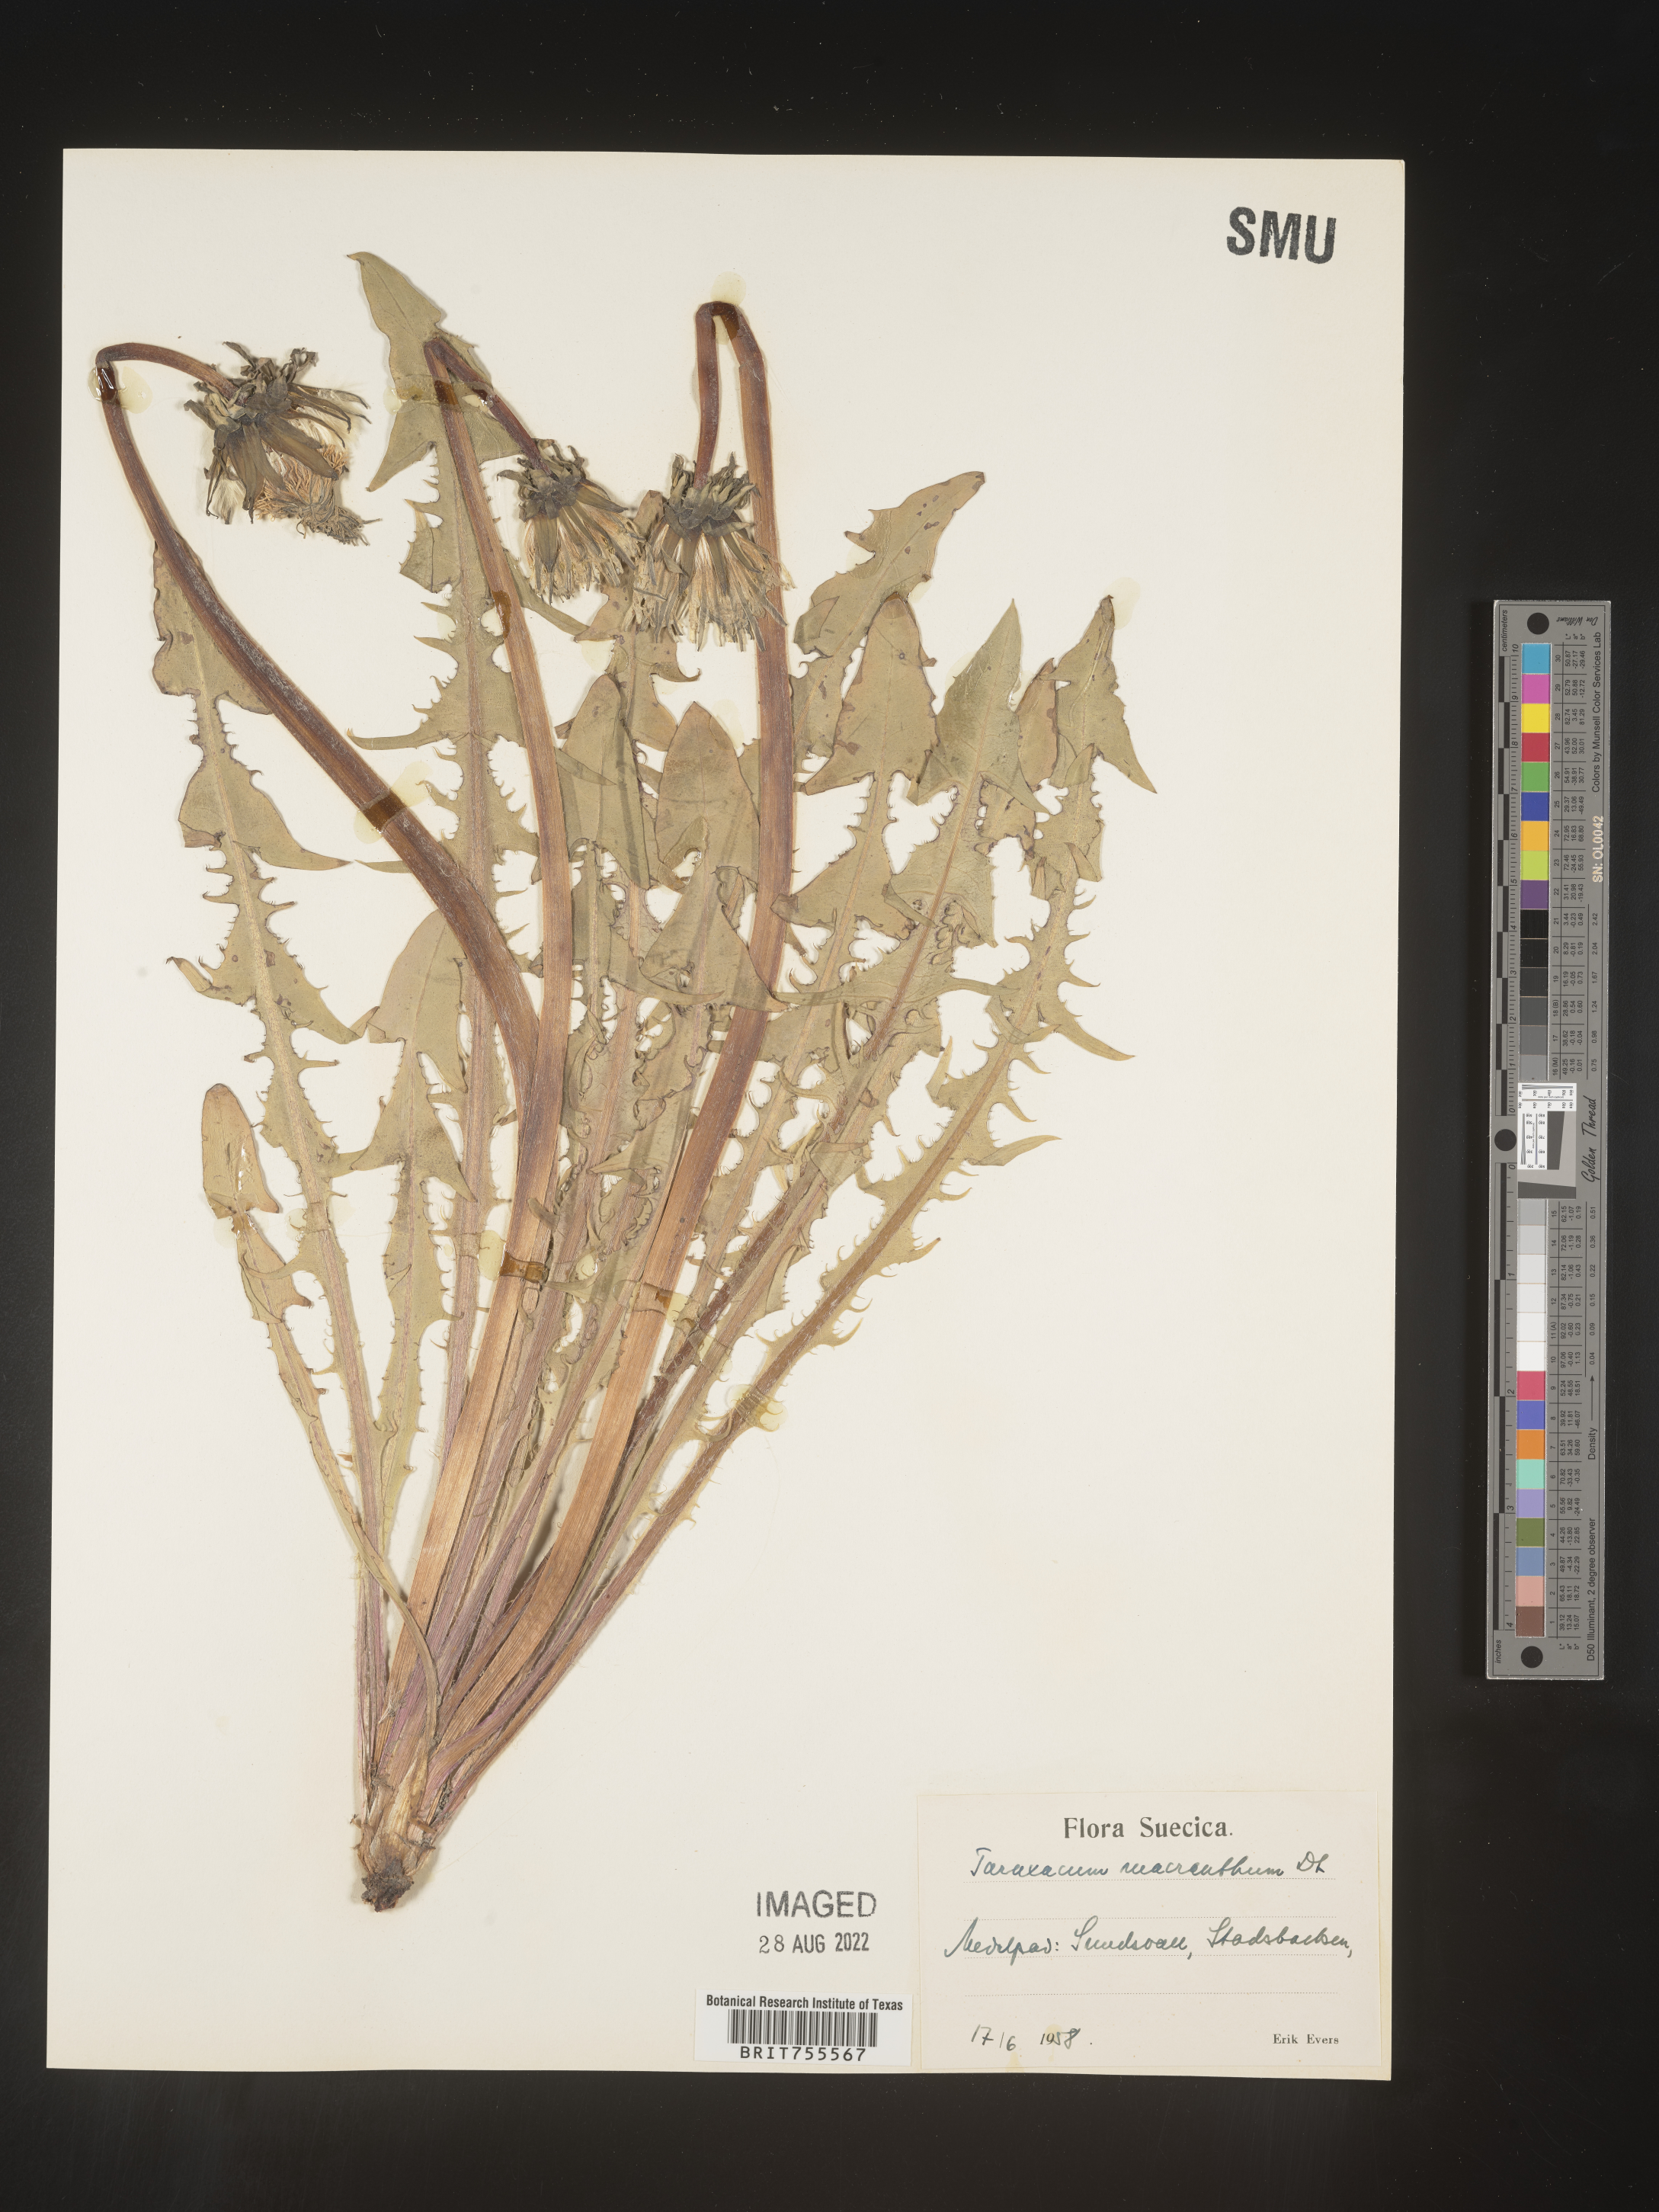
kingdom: Plantae
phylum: Tracheophyta
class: Magnoliopsida
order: Asterales
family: Asteraceae
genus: Taraxacum
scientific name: Taraxacum
